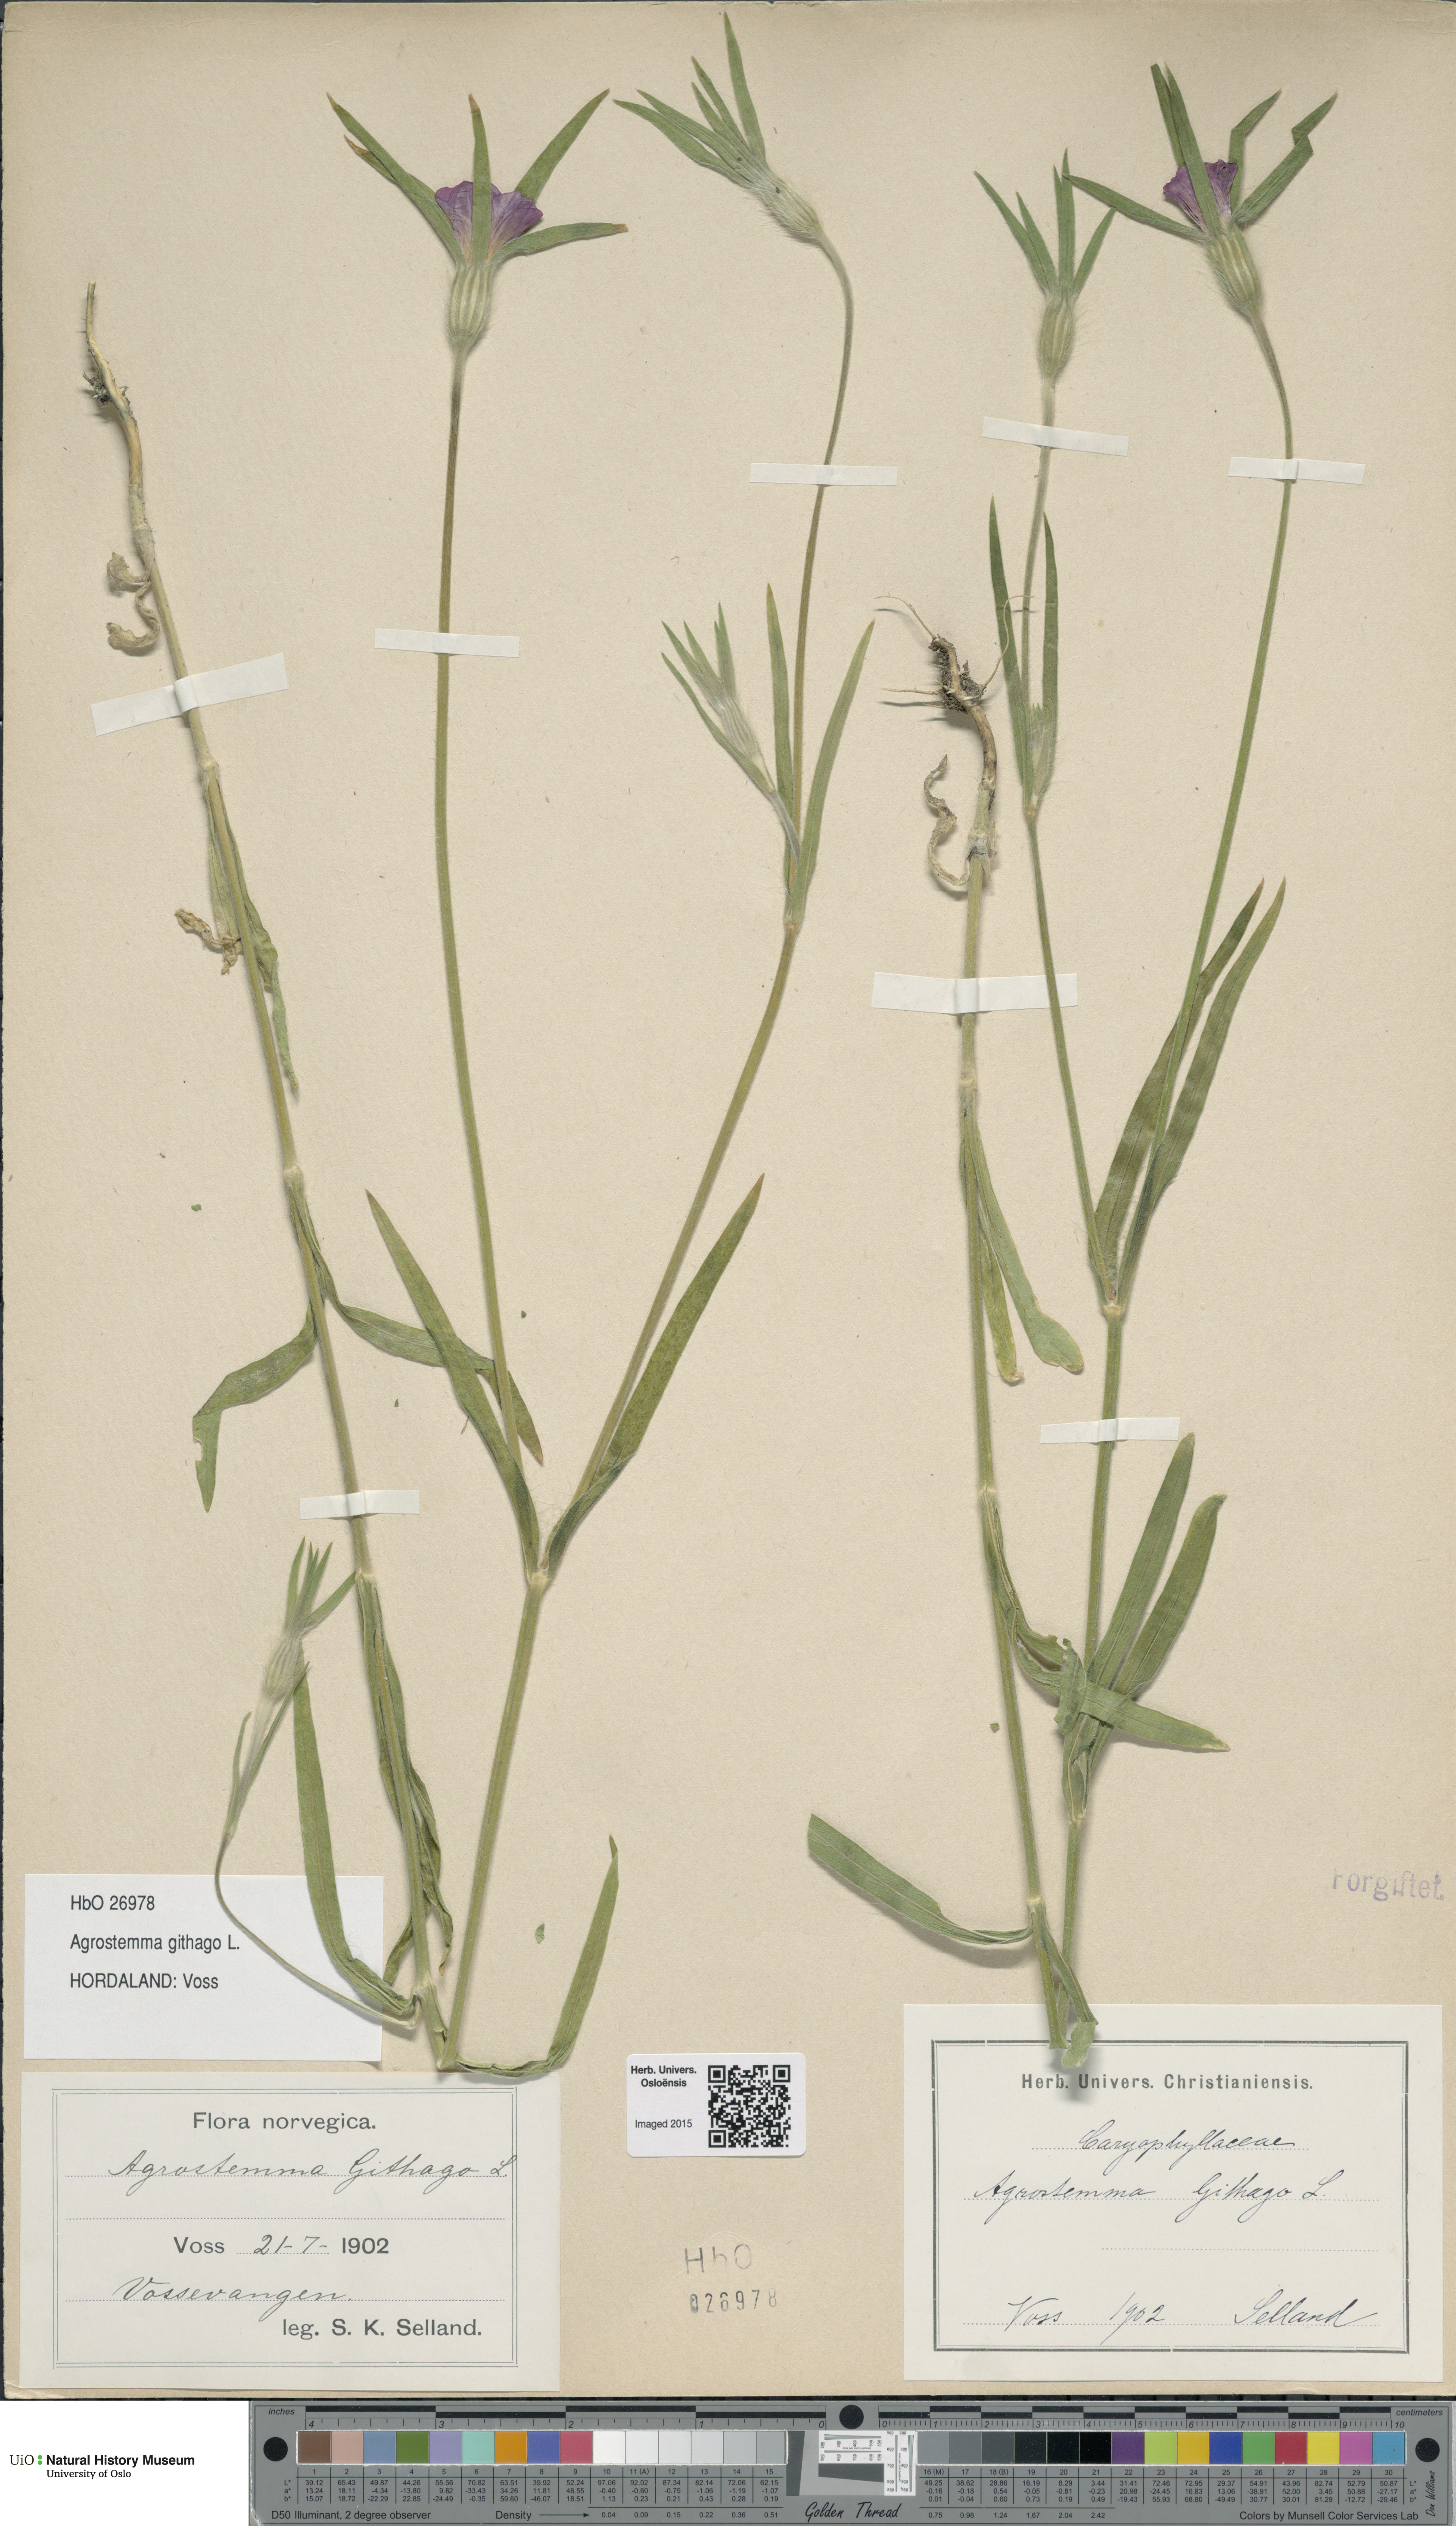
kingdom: Plantae
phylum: Tracheophyta
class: Magnoliopsida
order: Caryophyllales
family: Caryophyllaceae
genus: Agrostemma
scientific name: Agrostemma githago
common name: Common corncockle
